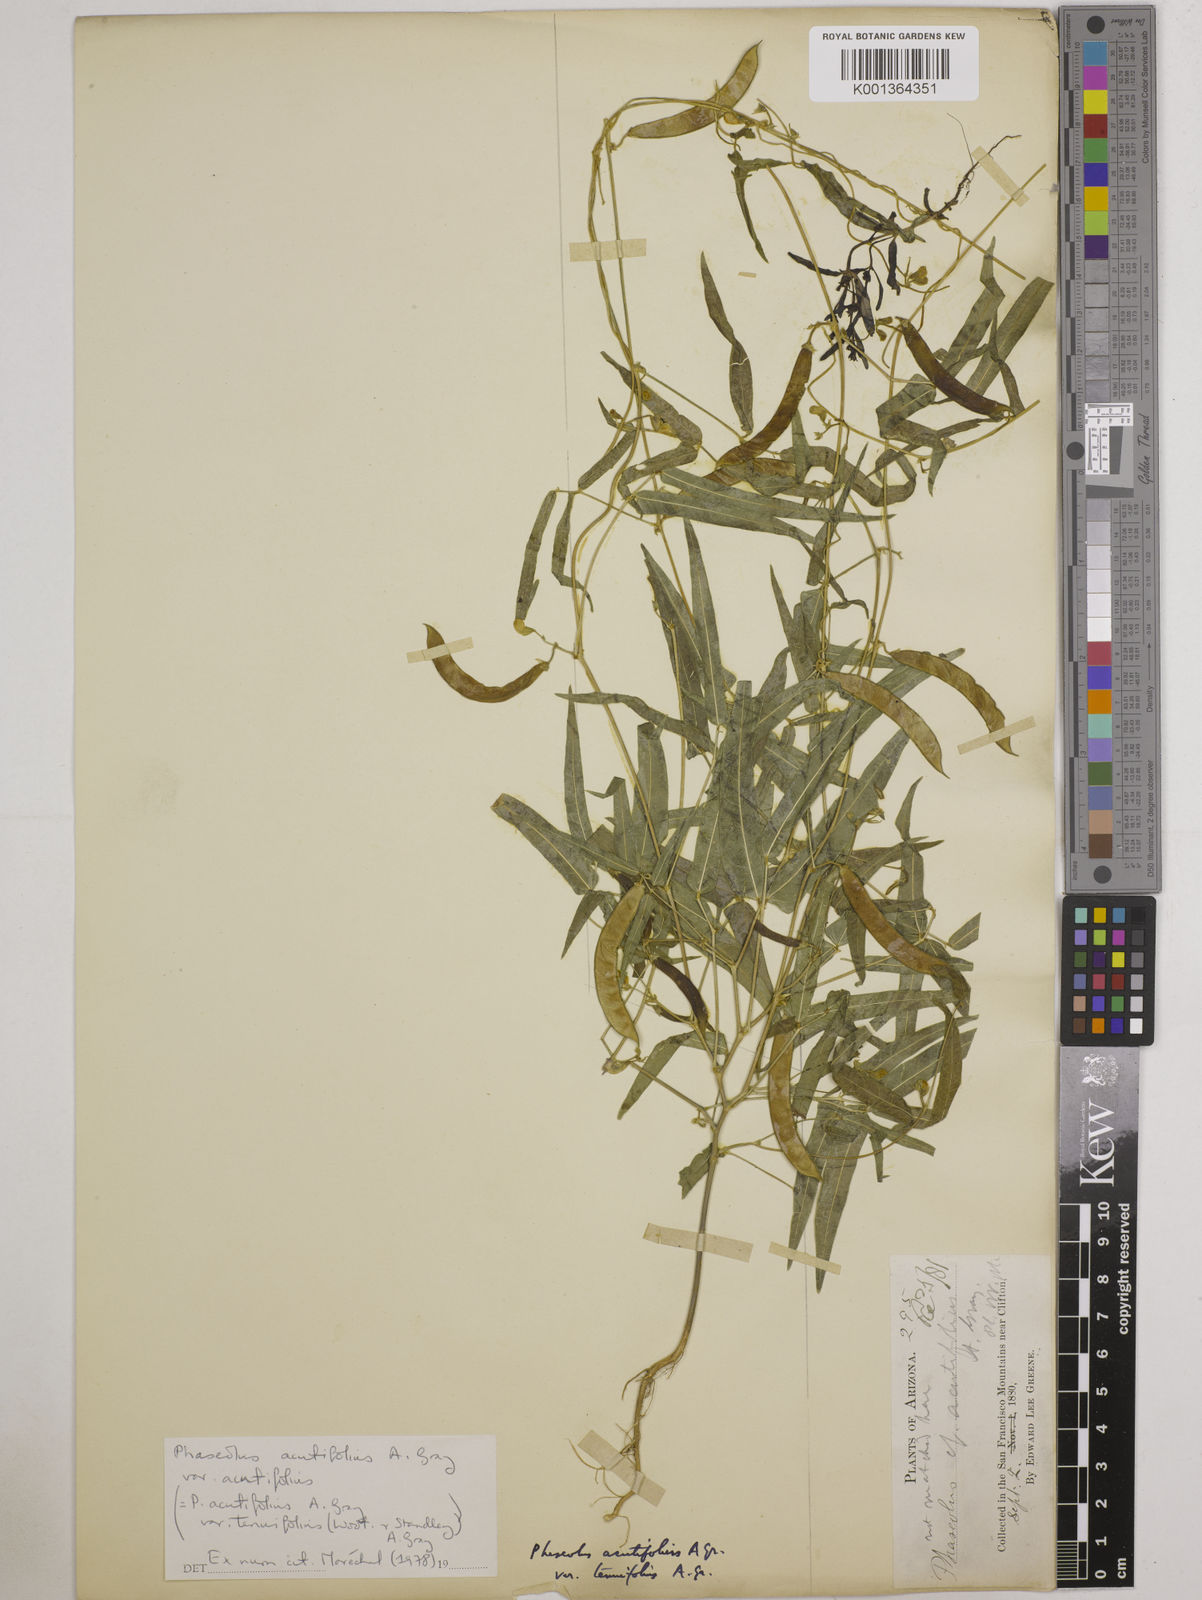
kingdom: Plantae
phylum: Tracheophyta
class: Magnoliopsida
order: Fabales
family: Fabaceae
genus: Phaseolus
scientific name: Phaseolus
